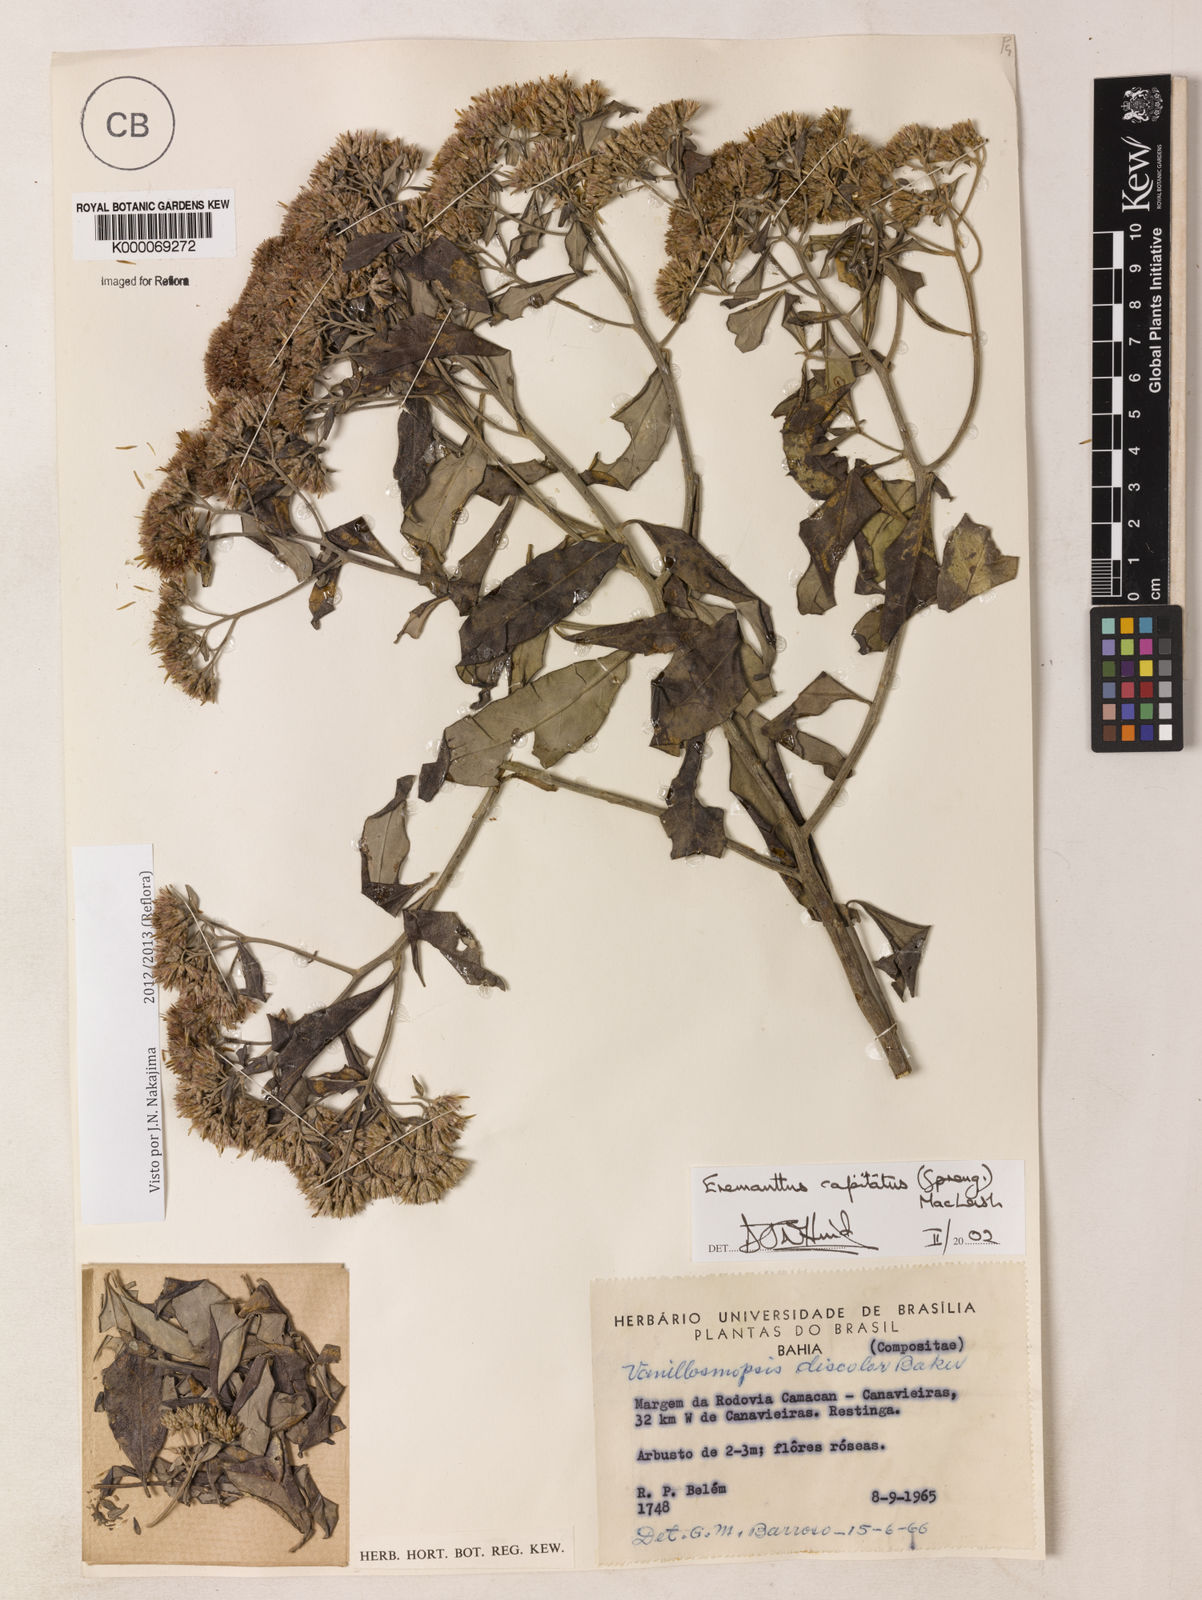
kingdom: Plantae
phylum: Tracheophyta
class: Magnoliopsida
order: Asterales
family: Asteraceae
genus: Eremanthus
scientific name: Eremanthus capitatus
